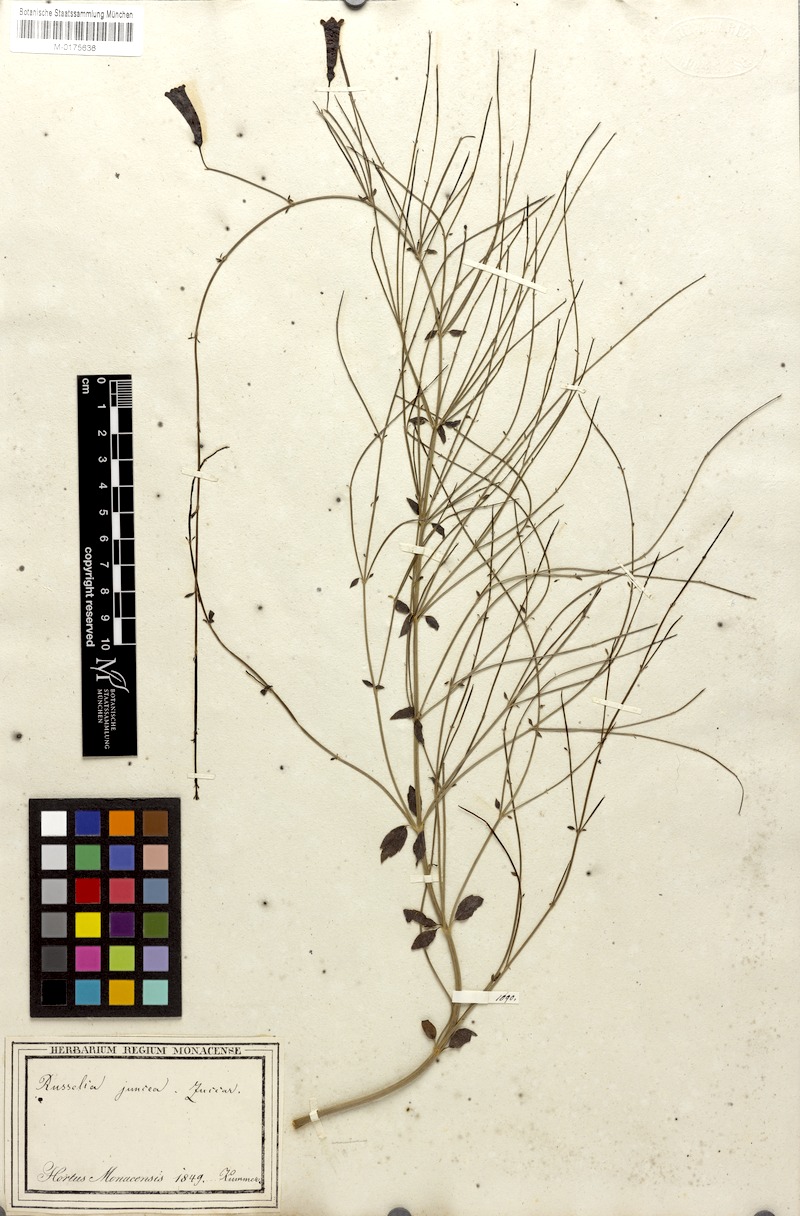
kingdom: Plantae
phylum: Tracheophyta
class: Magnoliopsida
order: Lamiales
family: Plantaginaceae
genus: Russelia
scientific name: Russelia equisetiformis
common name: Fountainbush
